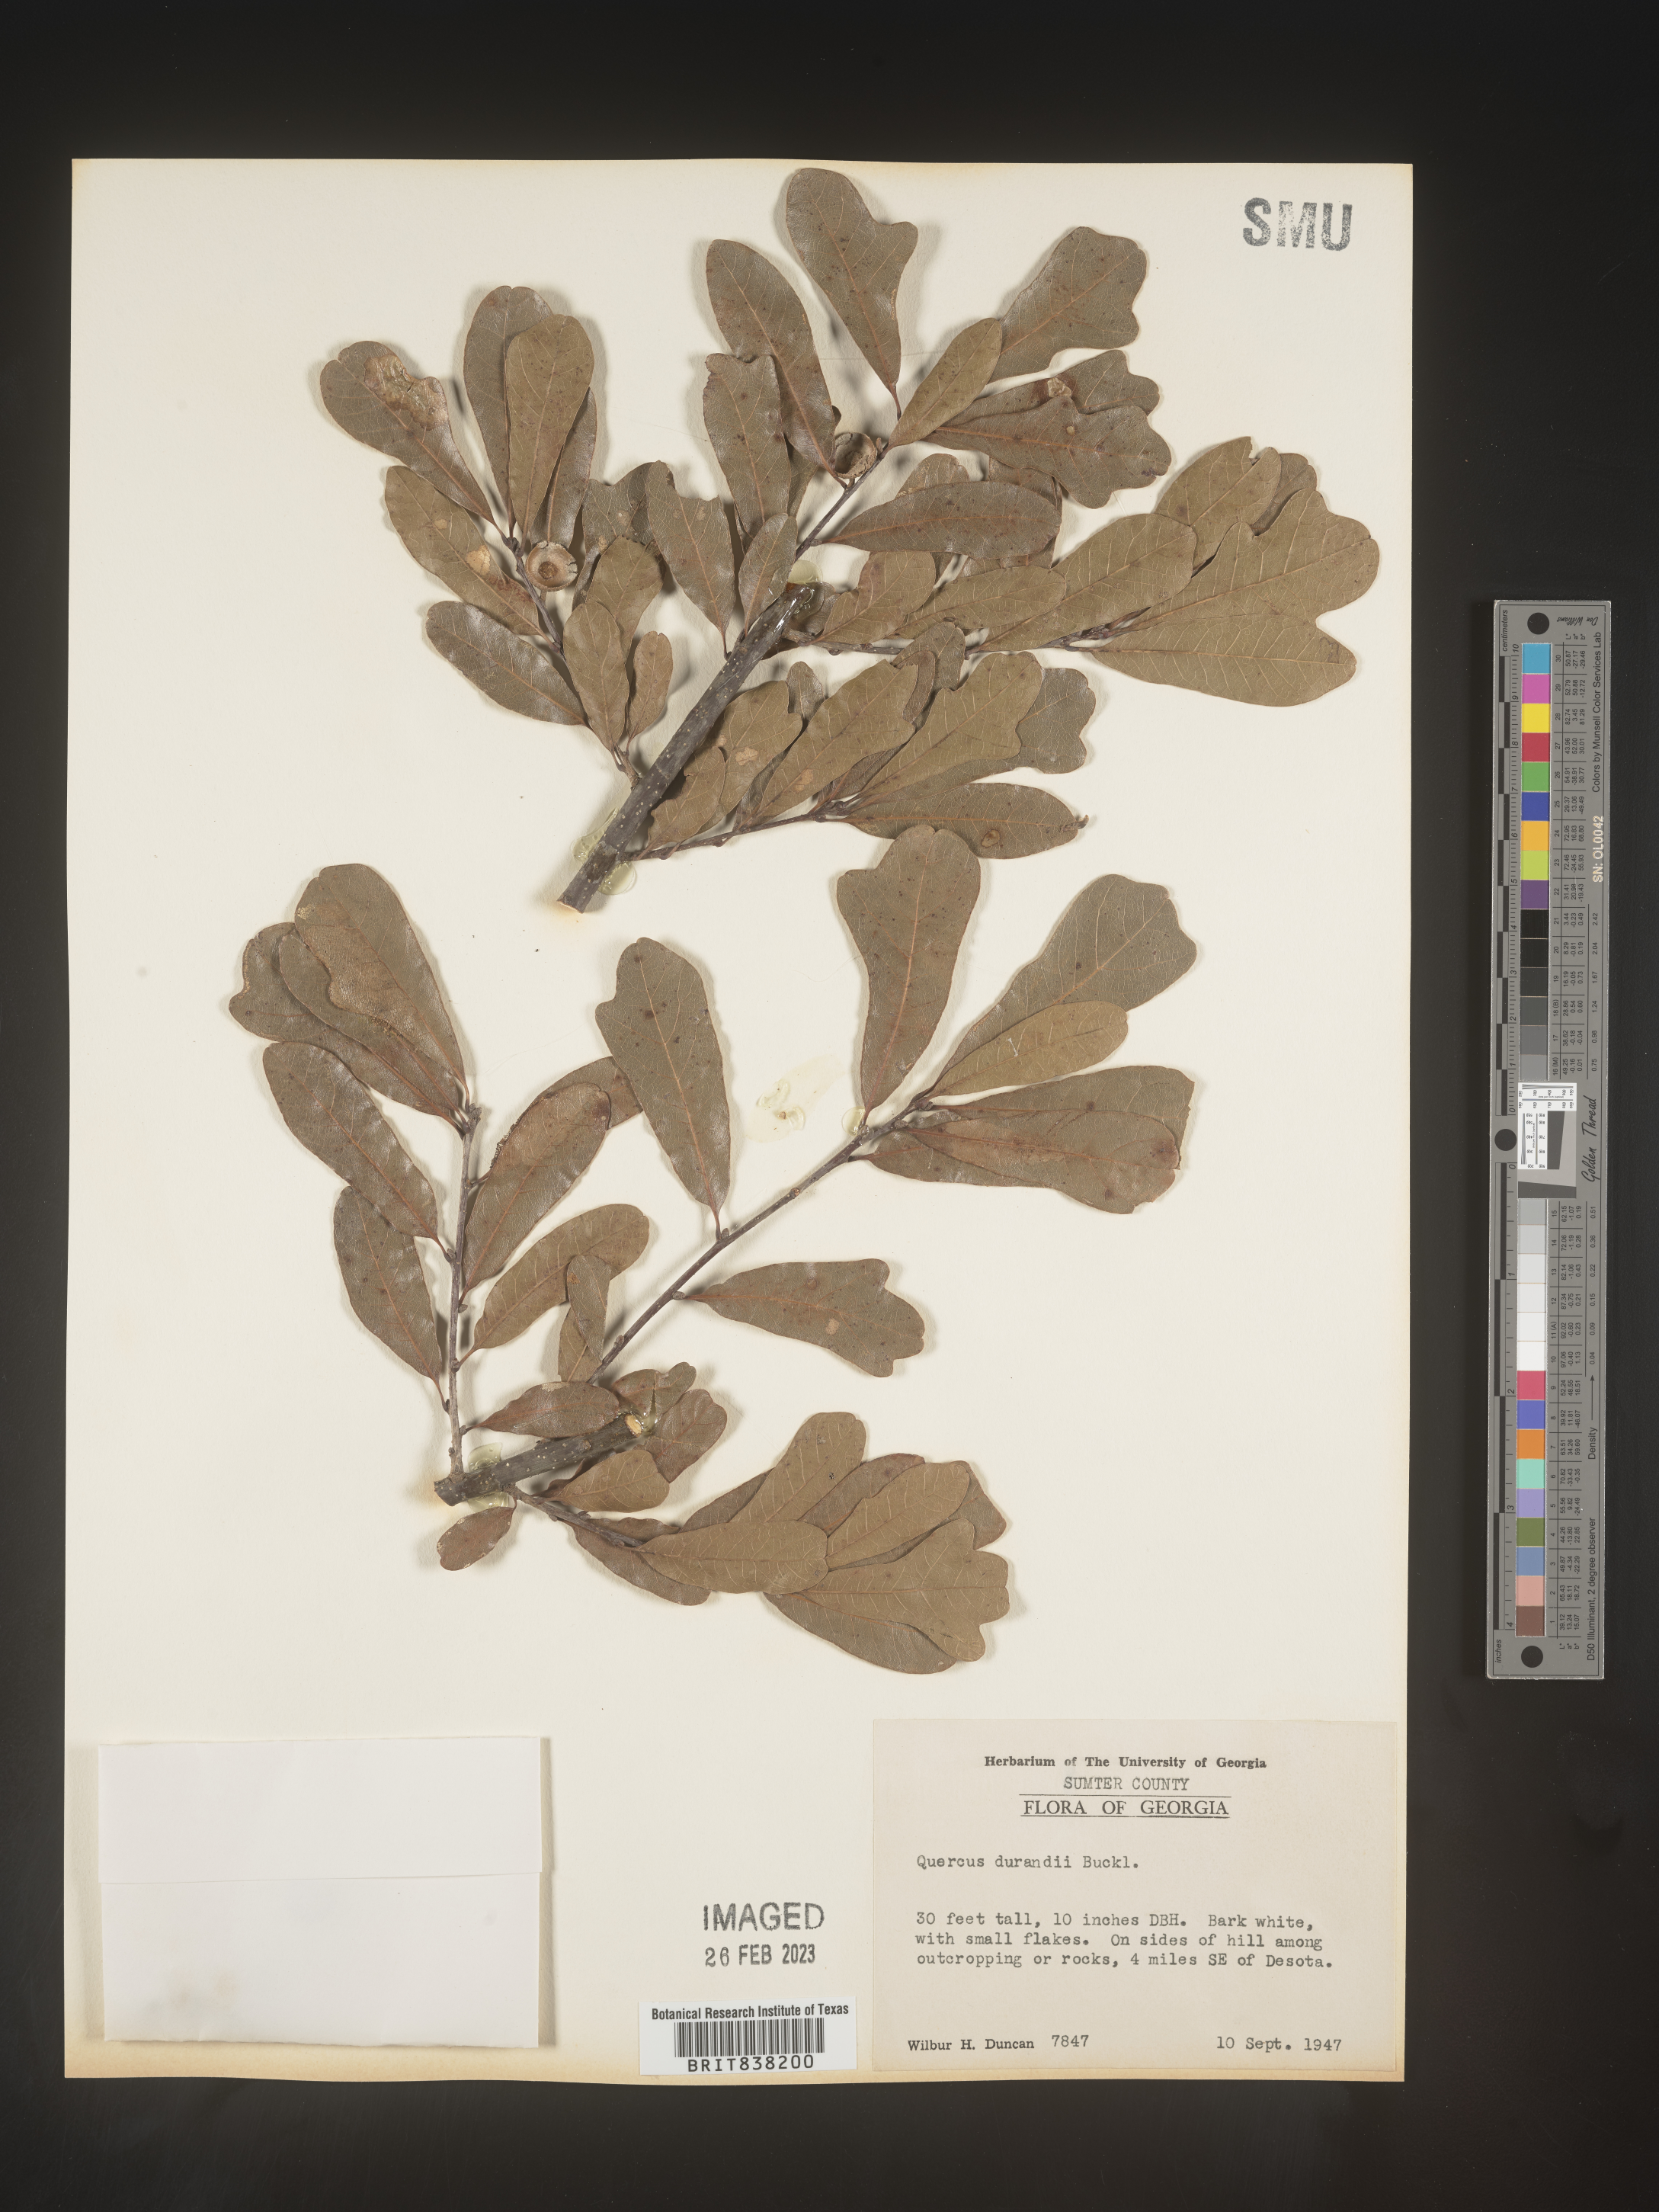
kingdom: Plantae
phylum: Tracheophyta
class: Magnoliopsida
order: Fagales
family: Fagaceae
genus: Quercus
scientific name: Quercus sinuata
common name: Durand oak
